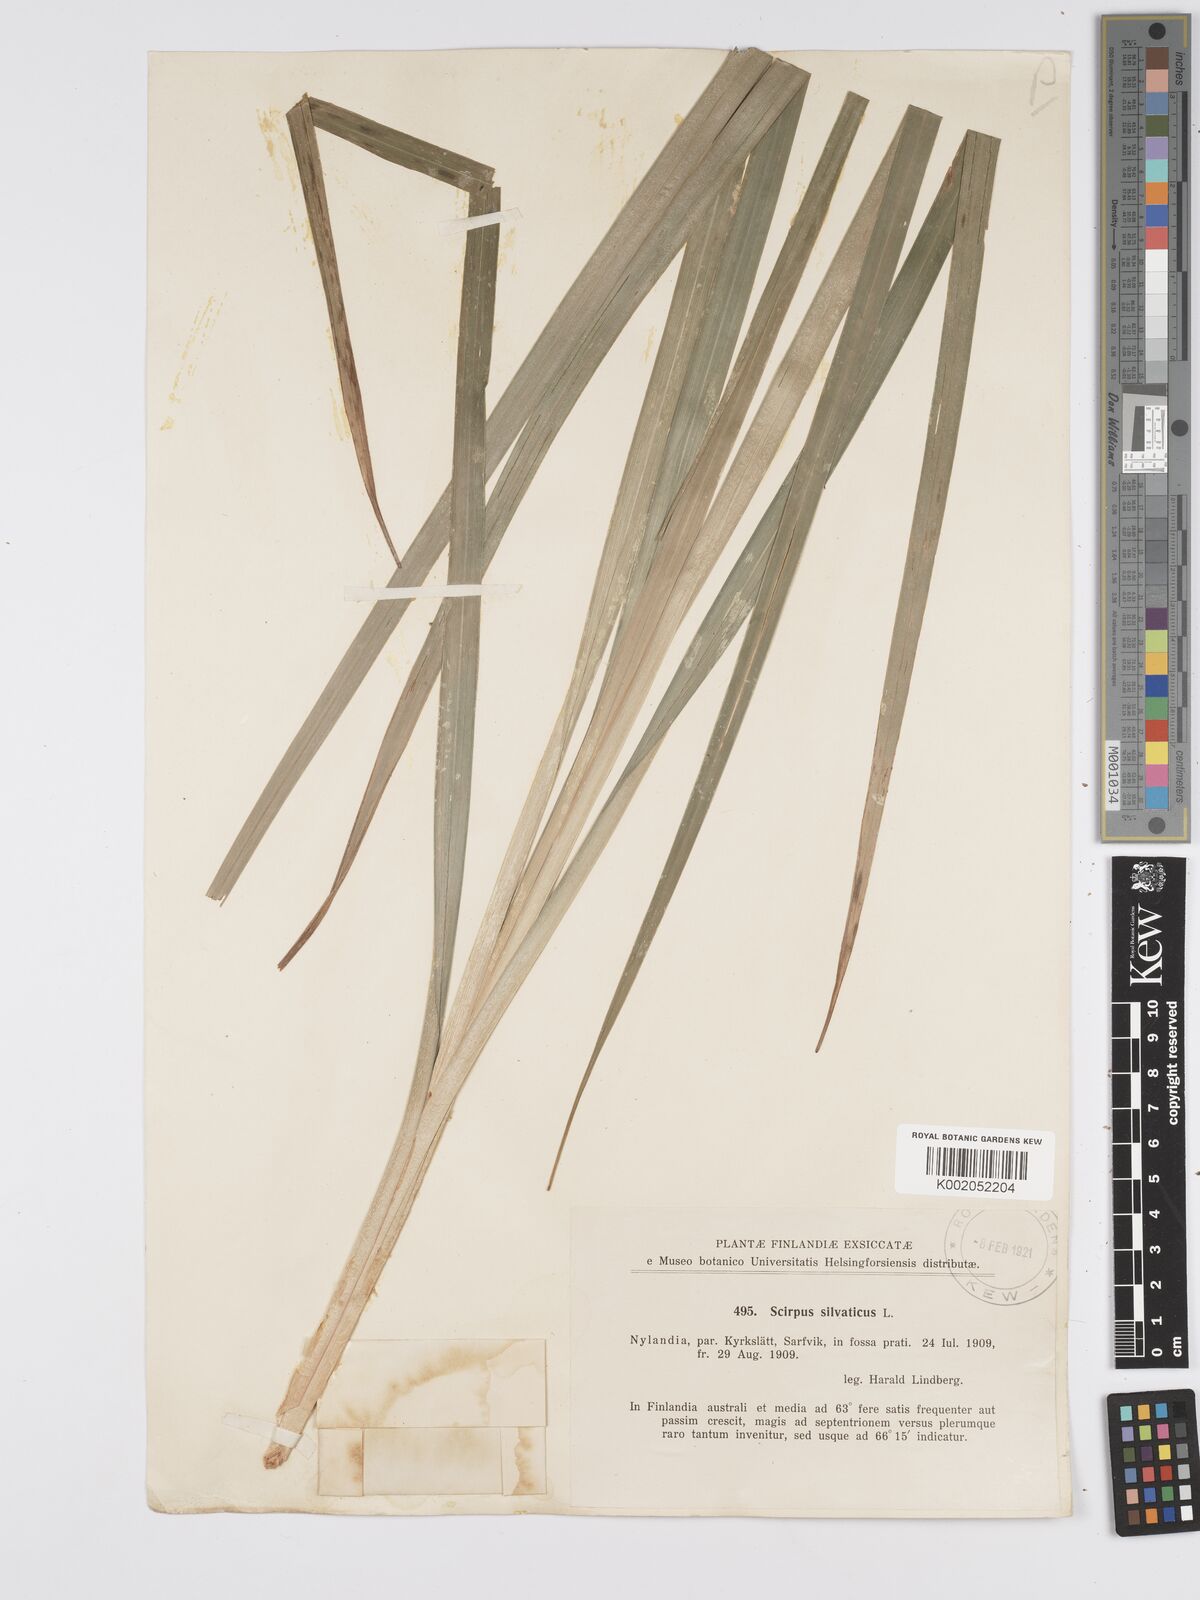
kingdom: Plantae
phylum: Tracheophyta
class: Liliopsida
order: Poales
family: Cyperaceae
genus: Scirpus
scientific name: Scirpus sylvaticus
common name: Wood club-rush
